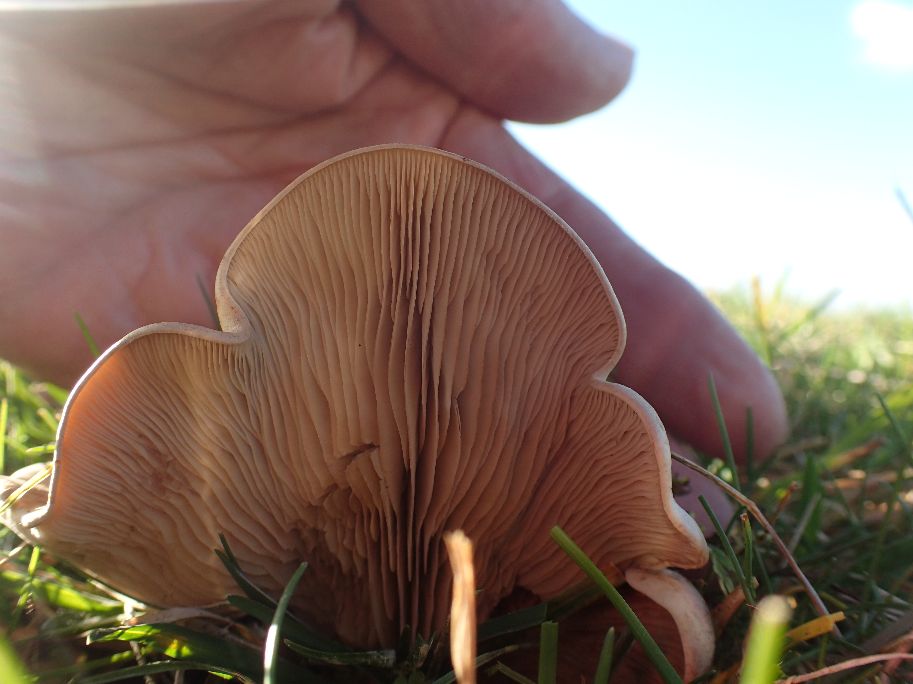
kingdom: Fungi
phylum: Basidiomycota
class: Agaricomycetes
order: Agaricales
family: Tricholomataceae
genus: Lepista
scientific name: Lepista panaeolus
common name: marmoreret hekseringshat
